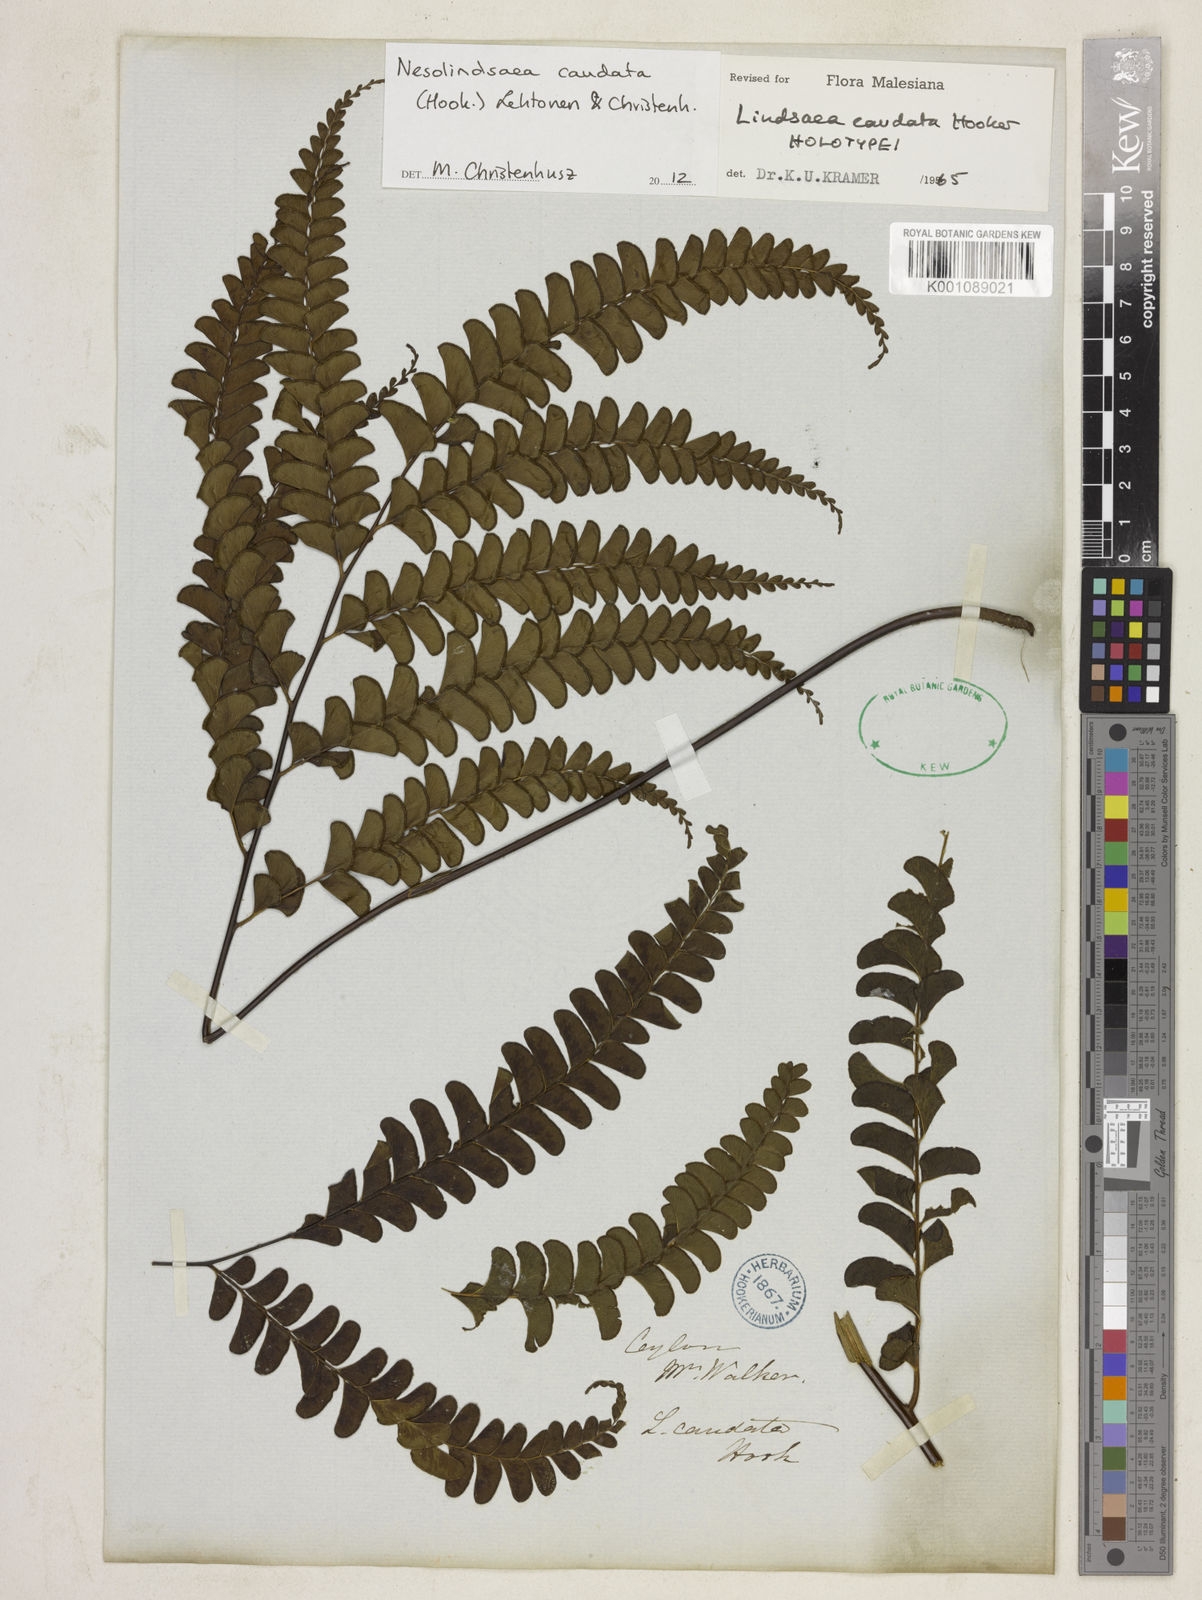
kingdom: Plantae
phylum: Tracheophyta
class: Polypodiopsida
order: Polypodiales
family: Lindsaeaceae
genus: Nesolindsaea
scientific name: Nesolindsaea caudata
